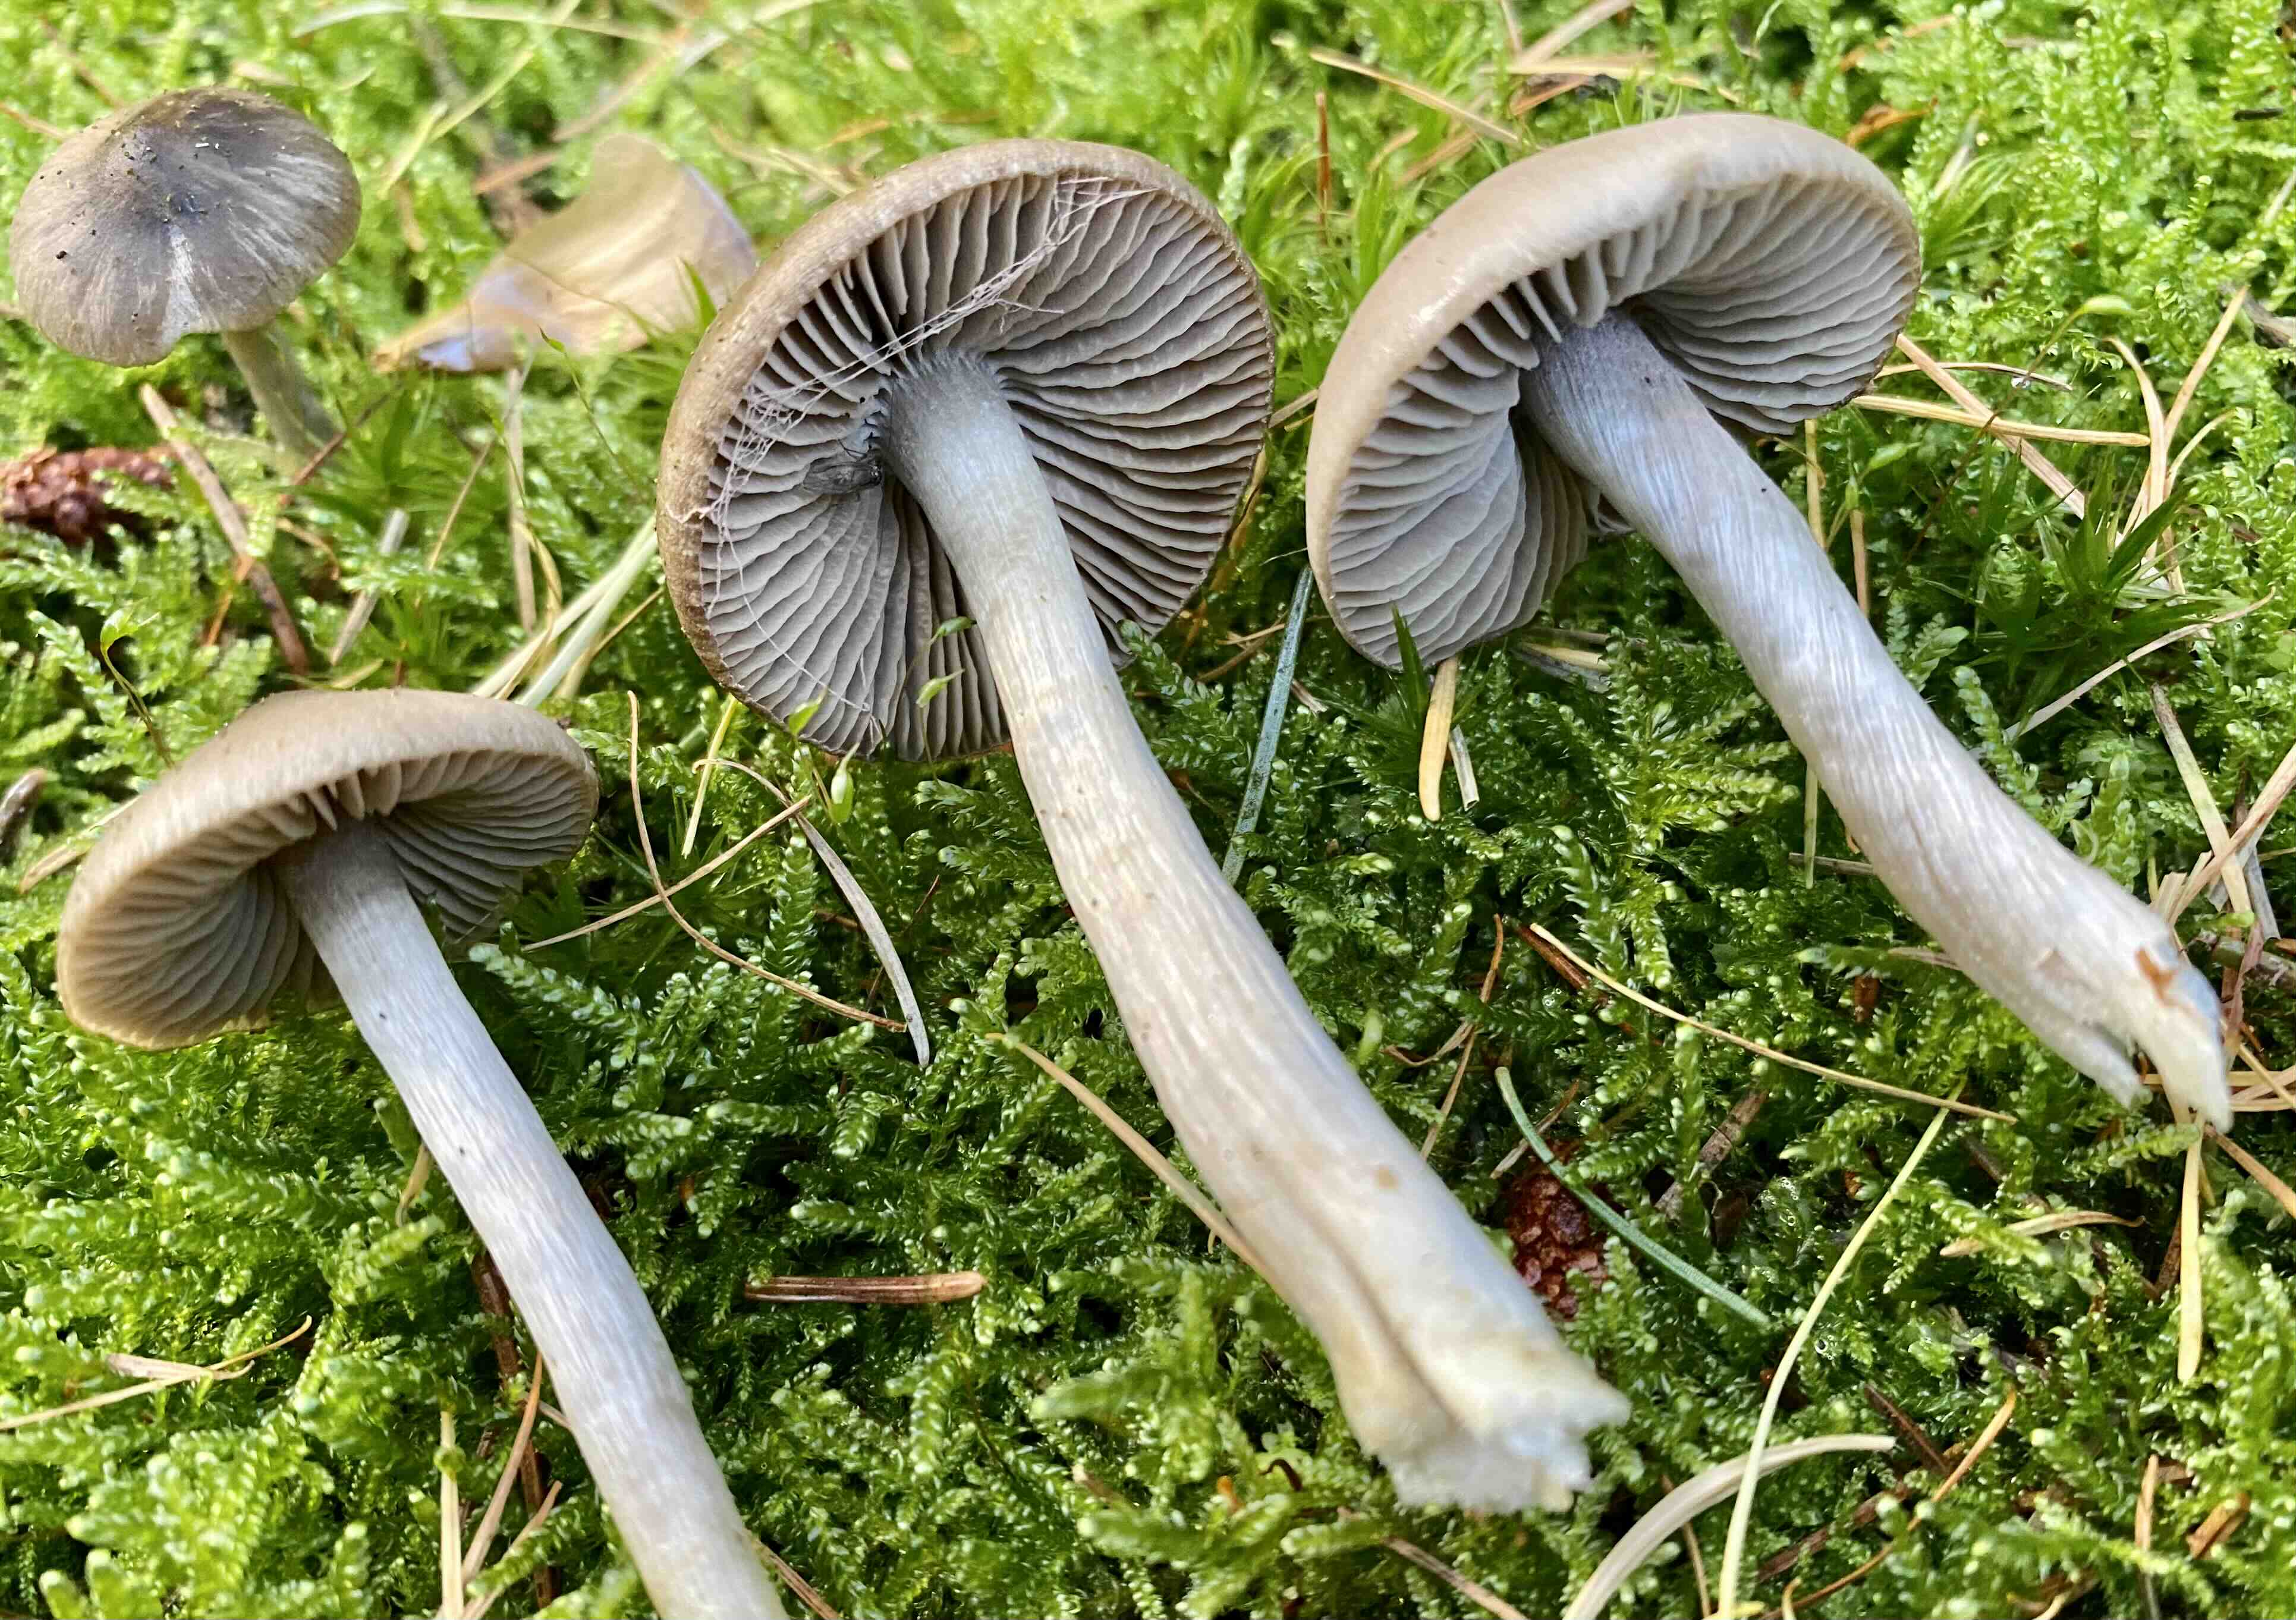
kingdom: Fungi
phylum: Basidiomycota
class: Agaricomycetes
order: Agaricales
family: Entolomataceae
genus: Entocybe
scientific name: Entocybe turbida
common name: plantage-rødblad
